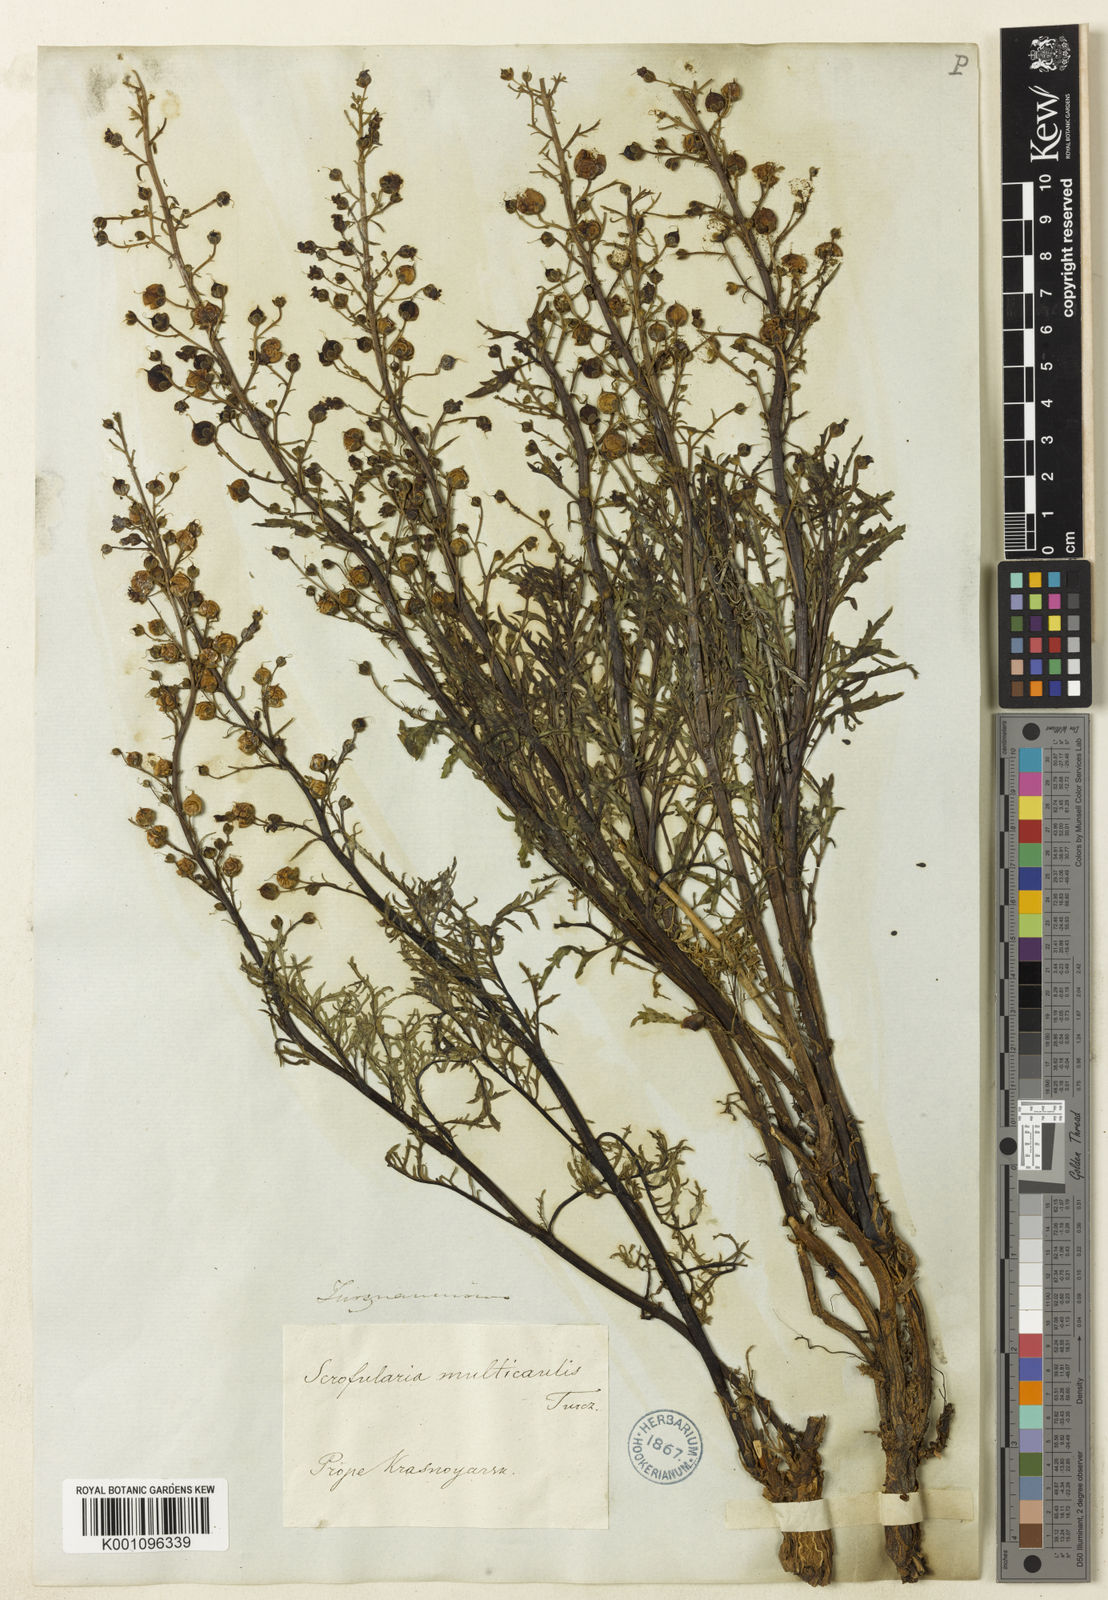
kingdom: Plantae
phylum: Tracheophyta
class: Magnoliopsida
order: Lamiales
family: Scrophulariaceae
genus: Scrophularia
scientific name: Scrophularia multicaulis
